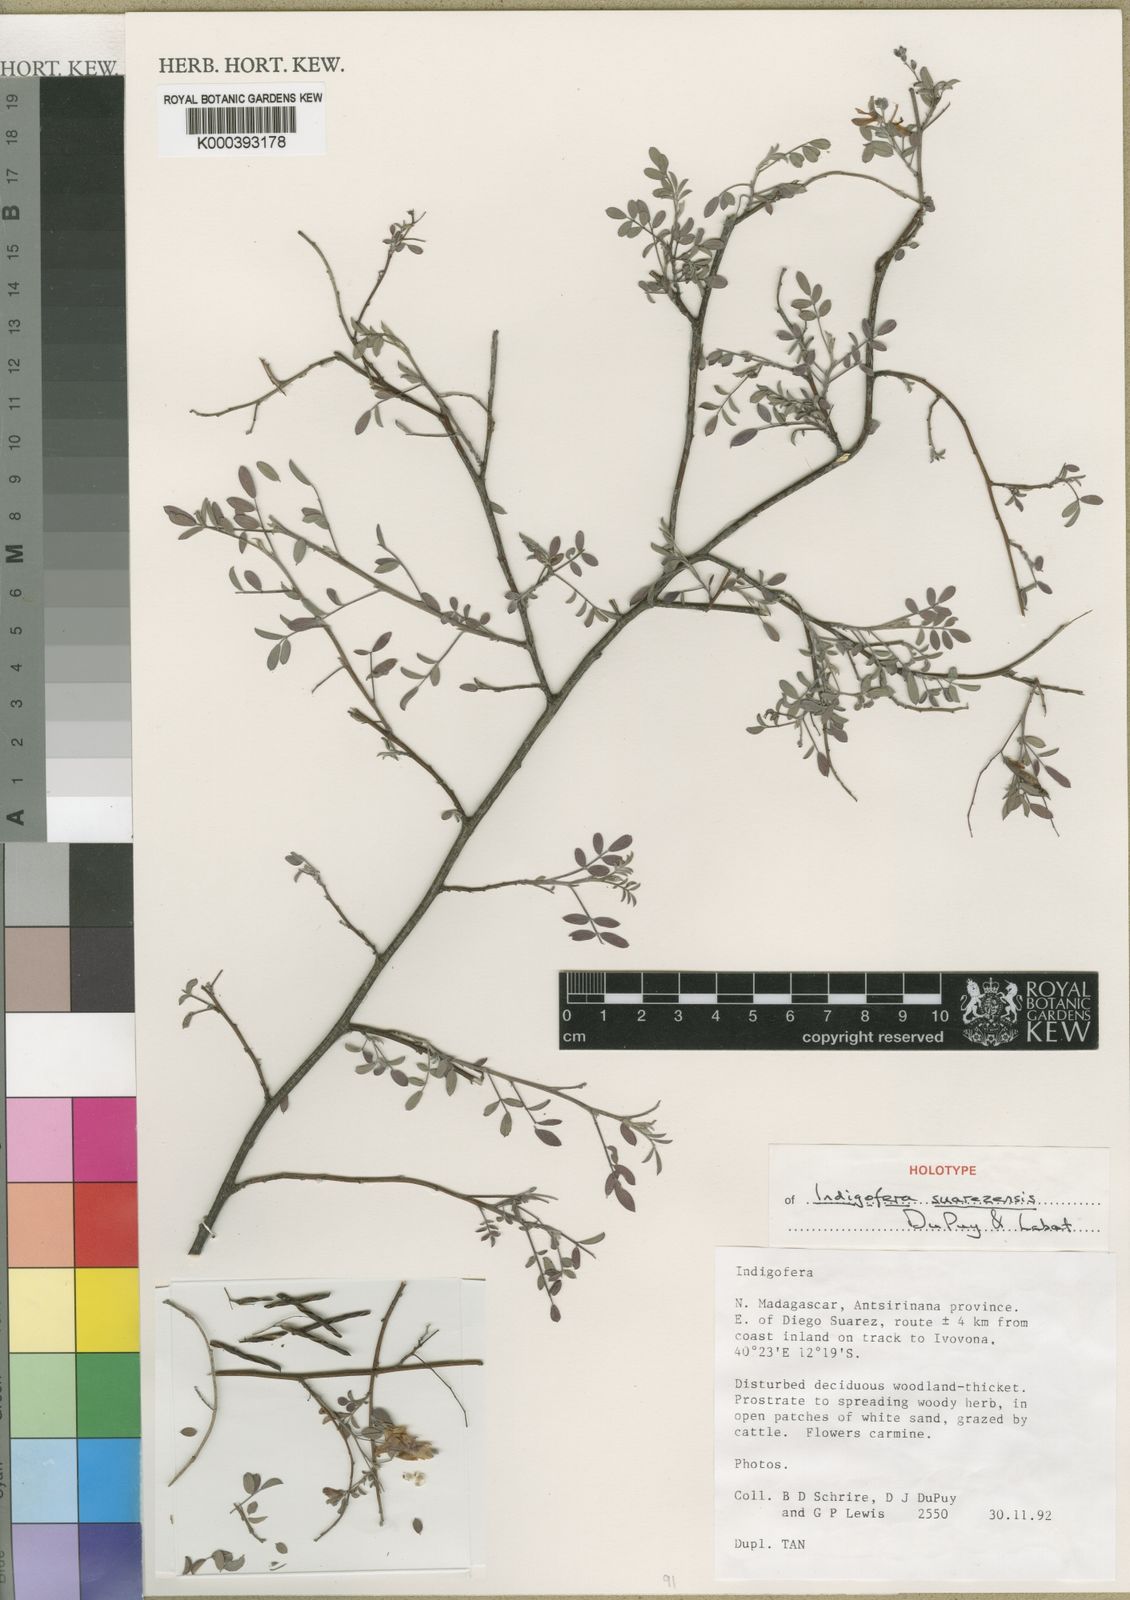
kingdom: Plantae
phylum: Tracheophyta
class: Magnoliopsida
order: Fabales
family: Fabaceae
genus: Indigofera
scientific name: Indigofera suarezensis
